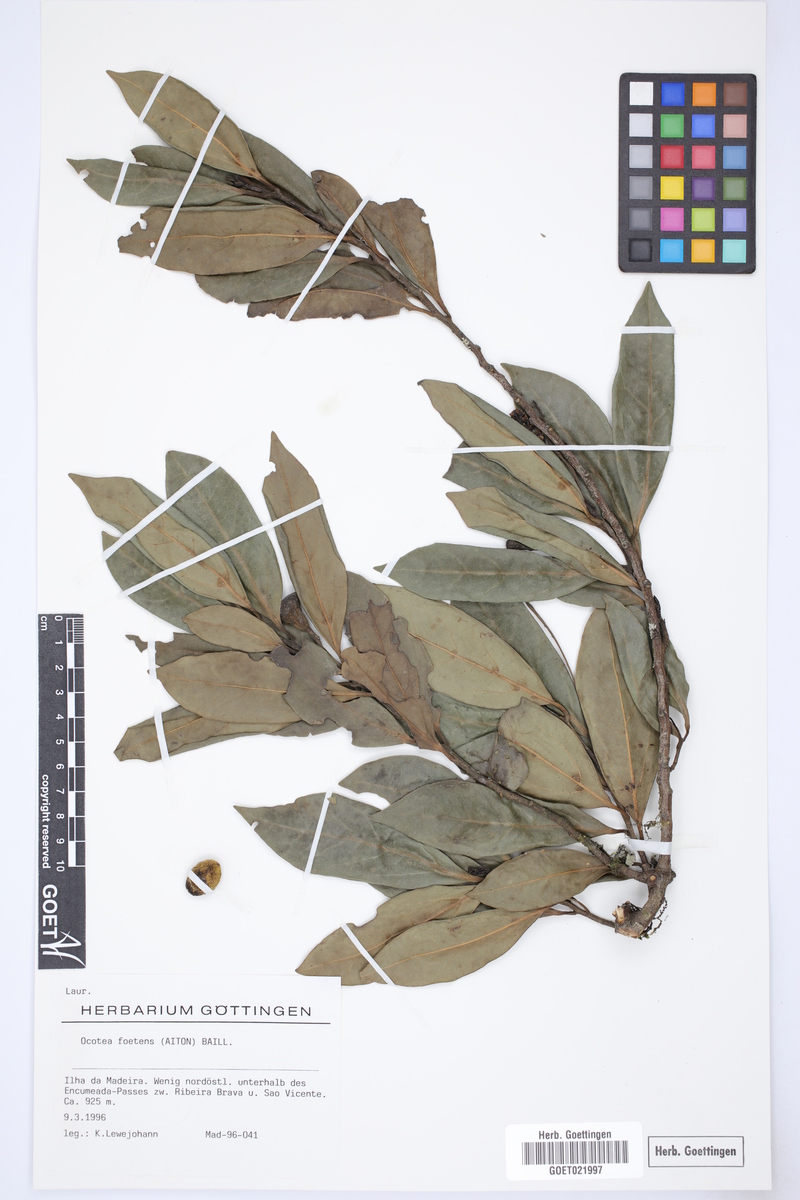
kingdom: Plantae
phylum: Tracheophyta
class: Magnoliopsida
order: Laurales
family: Lauraceae
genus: Mespilodaphne
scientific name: Mespilodaphne foetens
